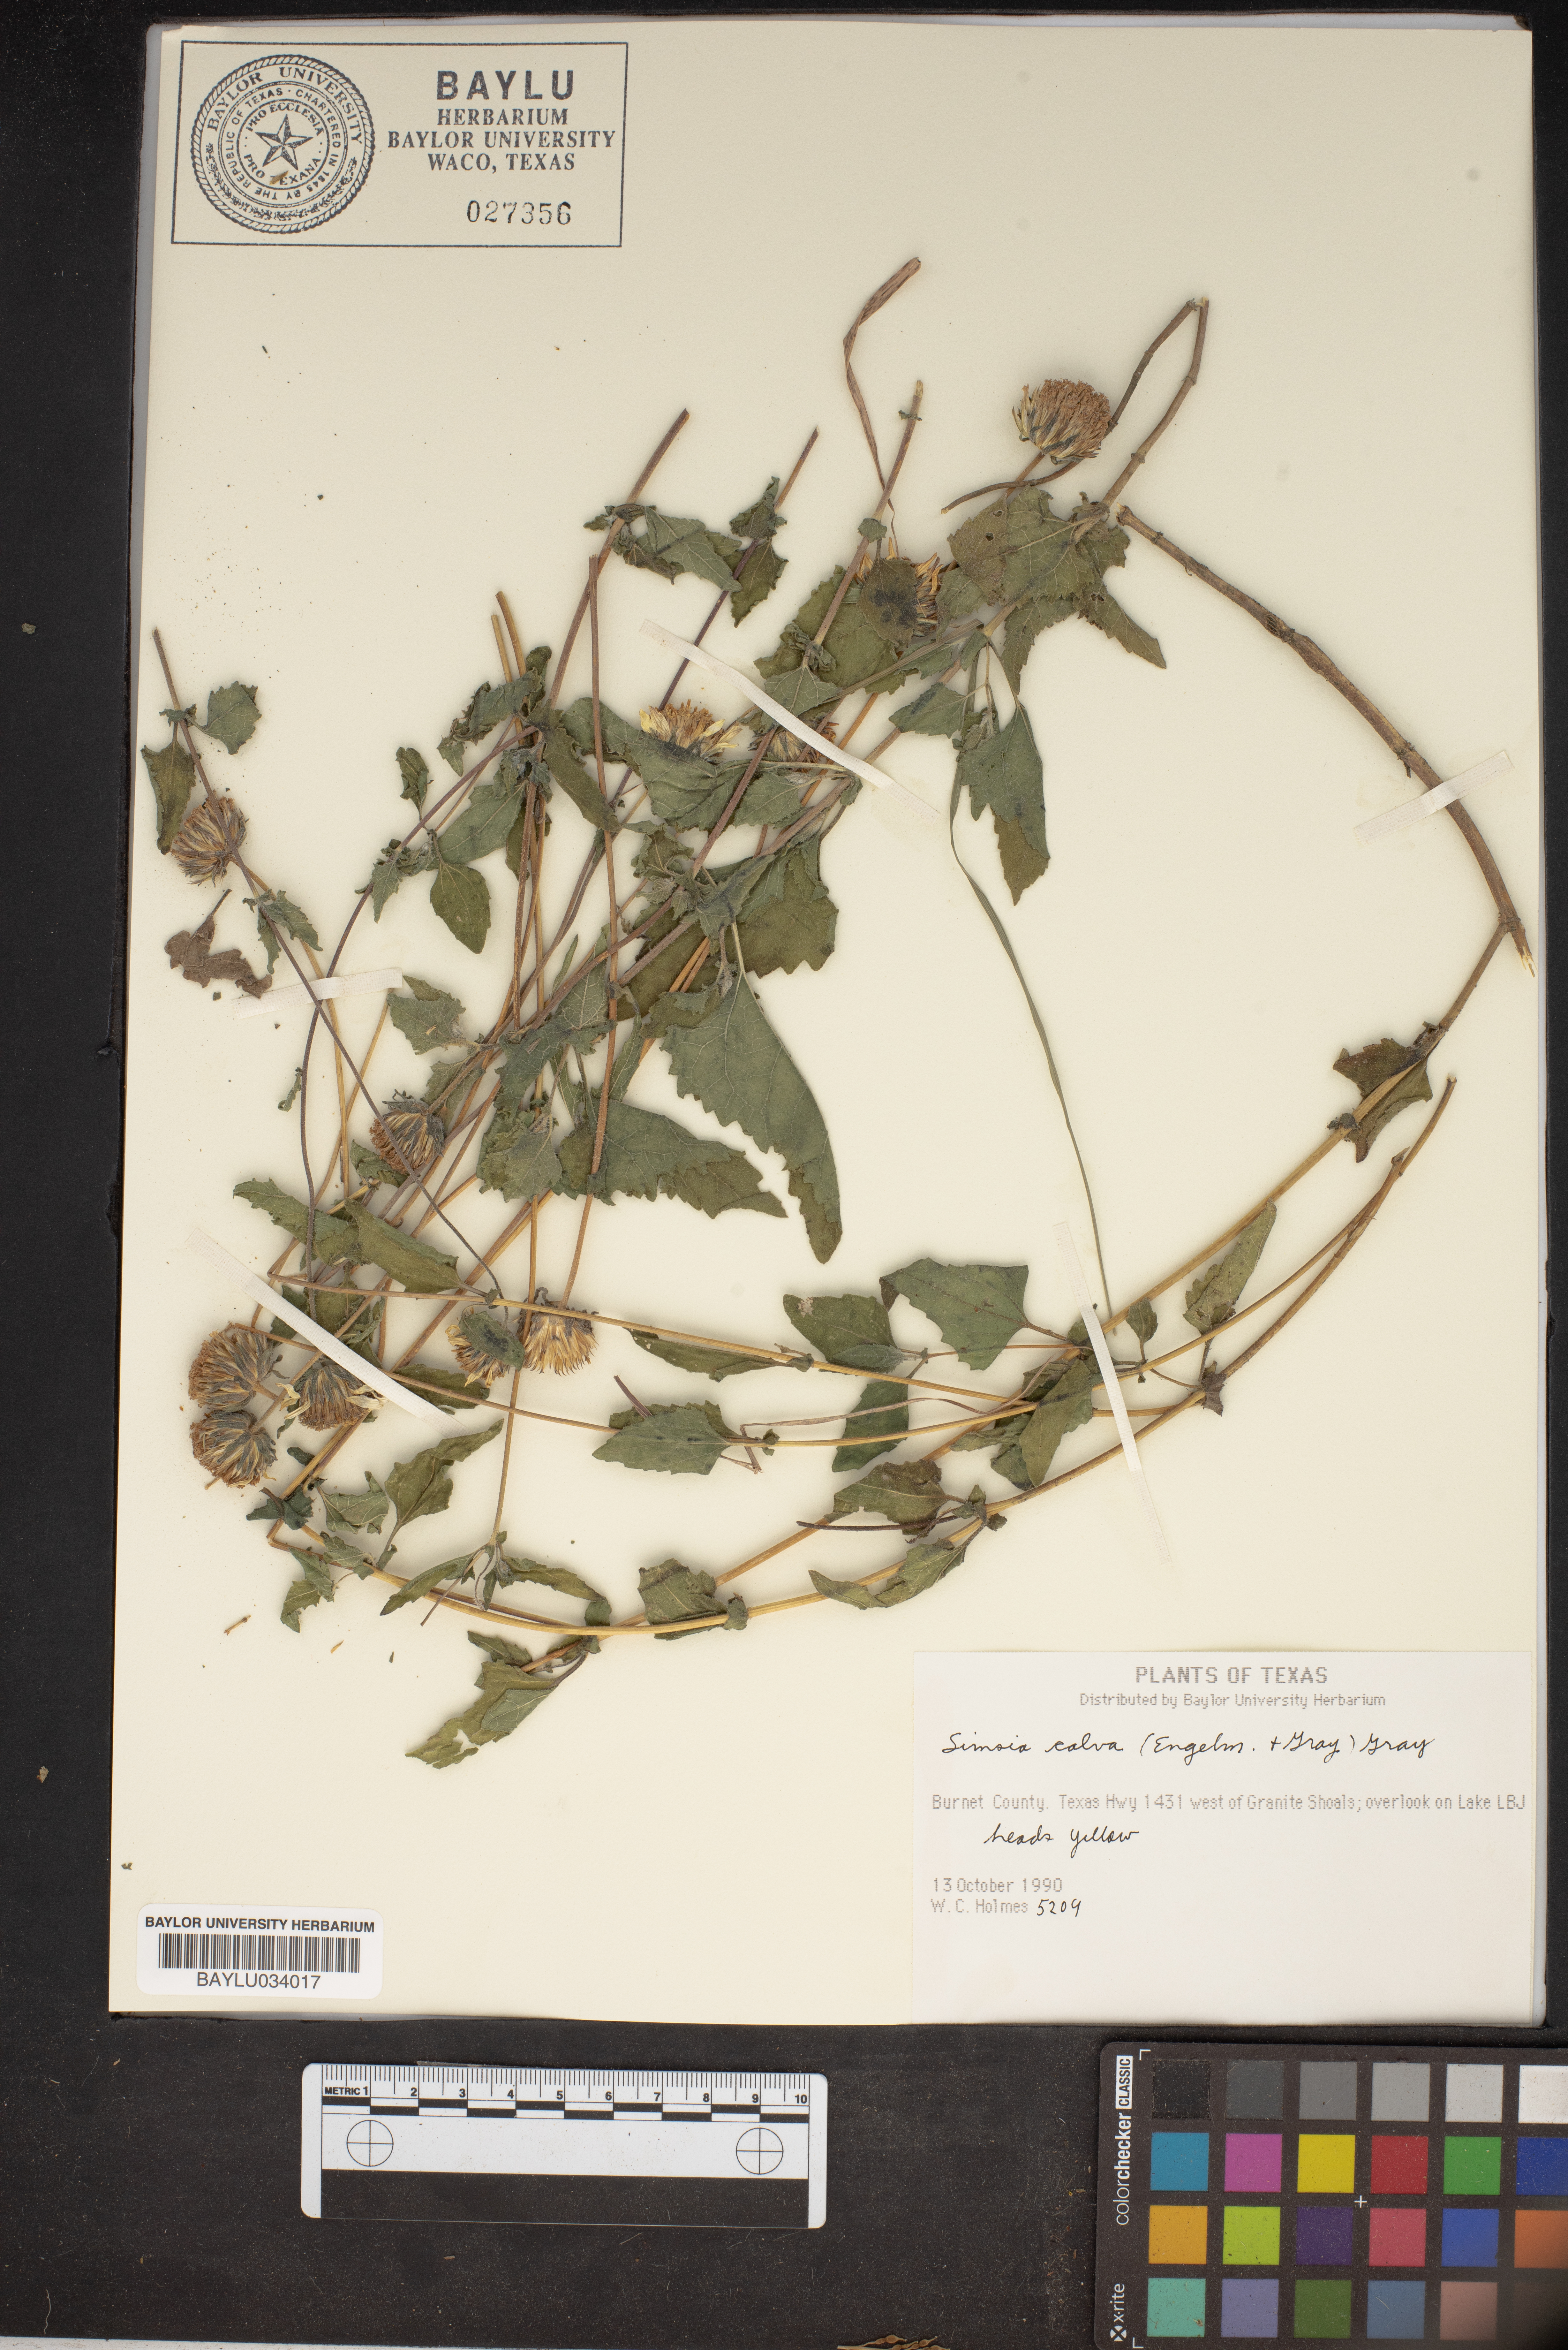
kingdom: Plantae
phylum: Tracheophyta
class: Magnoliopsida
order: Asterales
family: Asteraceae
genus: Simsia
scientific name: Simsia calva
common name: Awnless bush-sunflower
